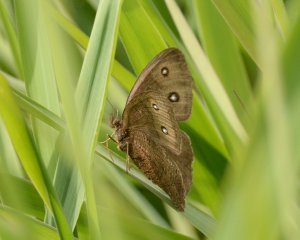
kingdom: Animalia
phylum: Arthropoda
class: Insecta
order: Lepidoptera
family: Nymphalidae
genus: Cercyonis
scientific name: Cercyonis pegala
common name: Common Wood-Nymph
